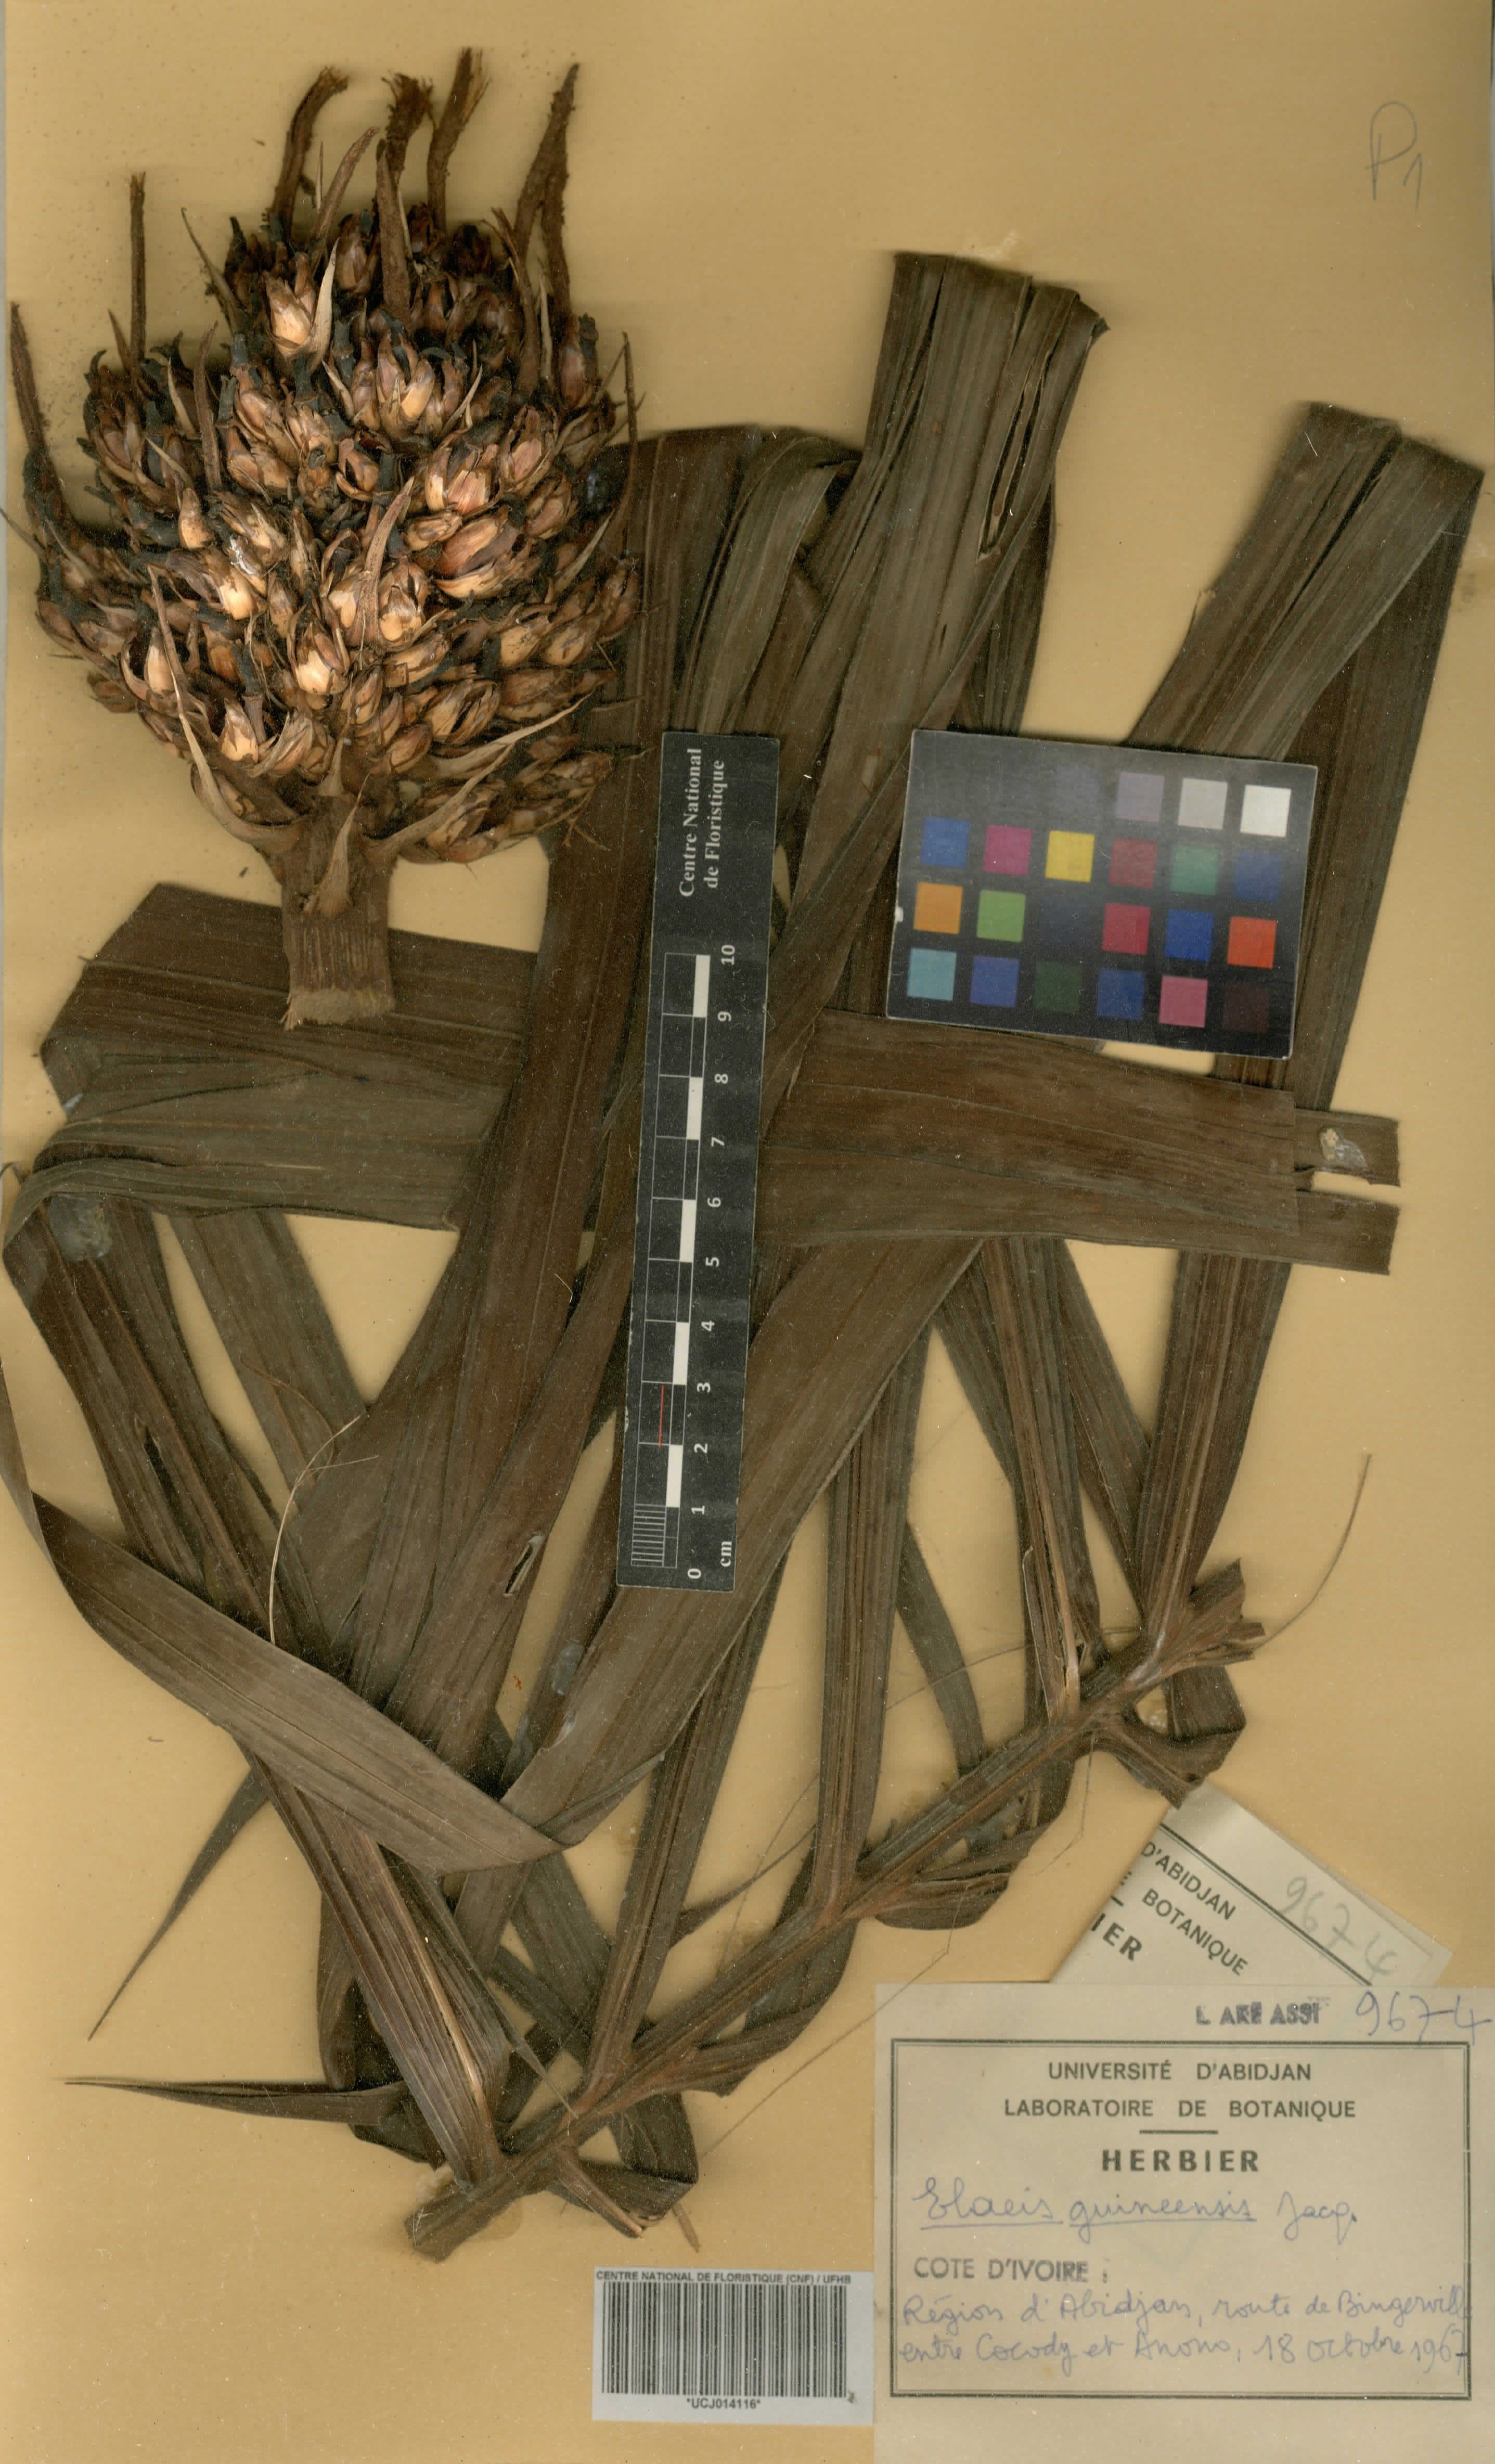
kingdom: Plantae
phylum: Tracheophyta
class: Liliopsida
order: Arecales
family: Arecaceae
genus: Elaeis
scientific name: Elaeis guineensis
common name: Oil palm
